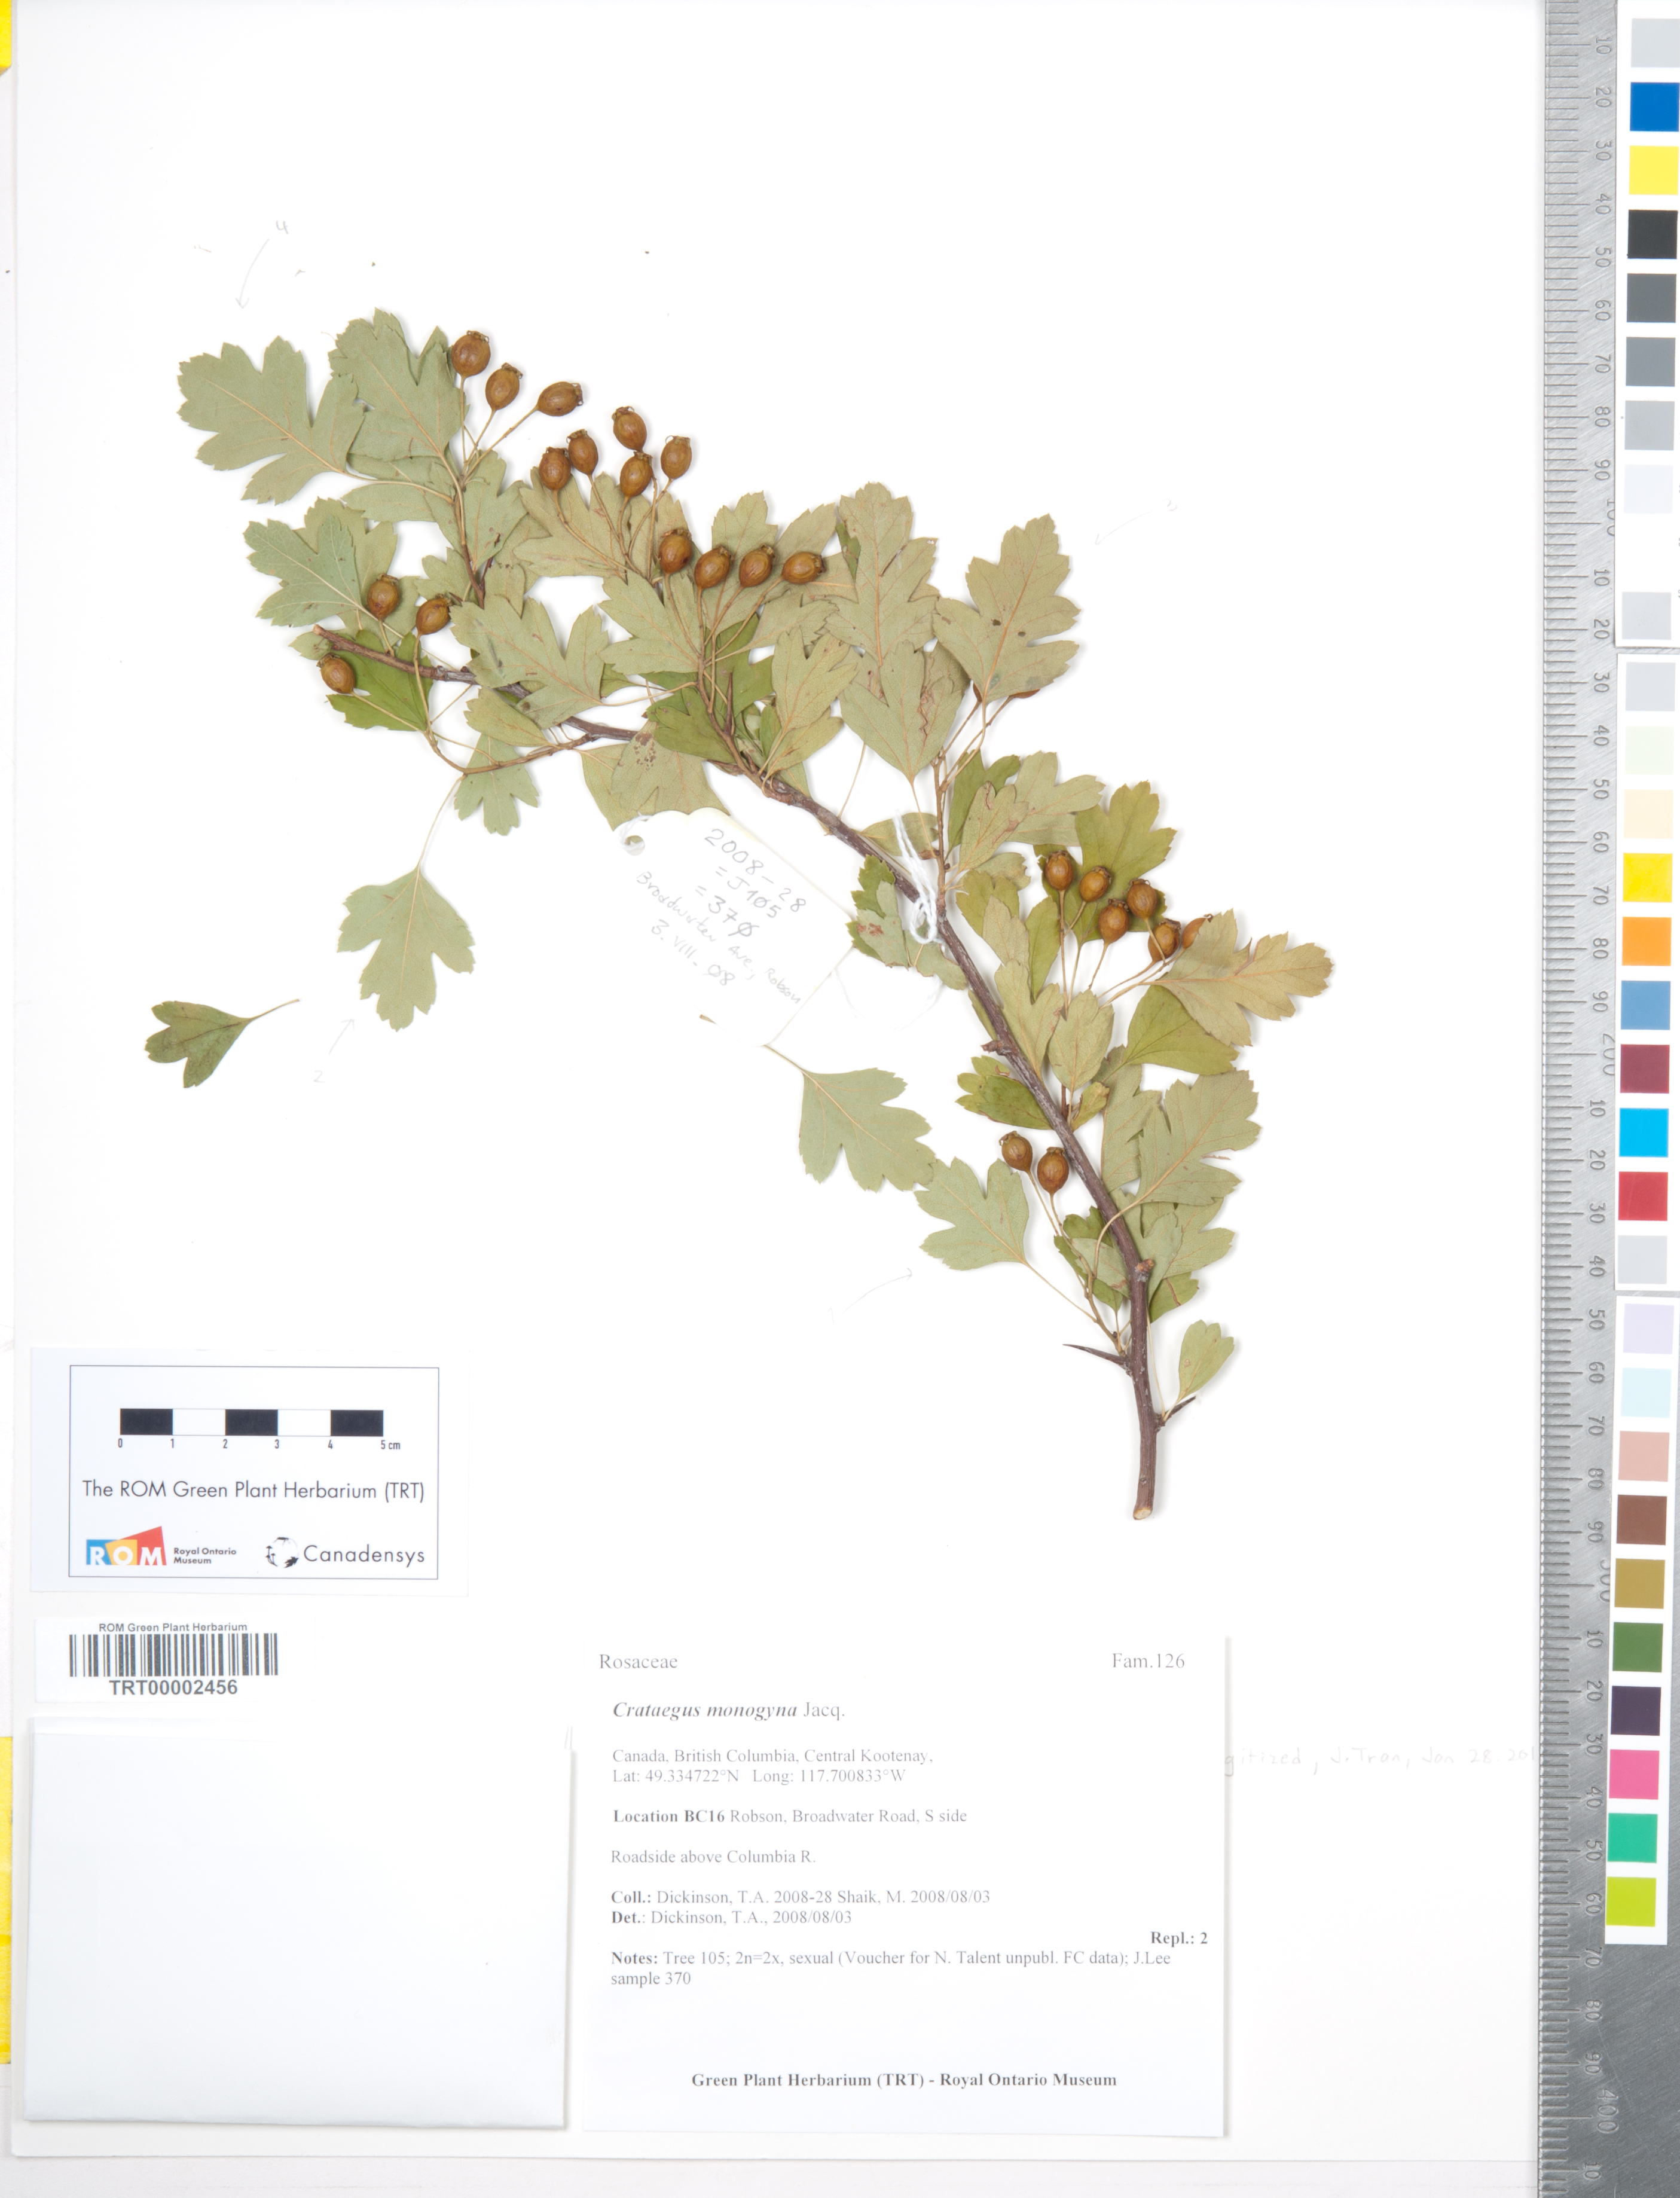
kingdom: Plantae
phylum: Tracheophyta
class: Magnoliopsida
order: Rosales
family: Rosaceae
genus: Crataegus
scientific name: Crataegus monogyna
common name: Hawthorn
